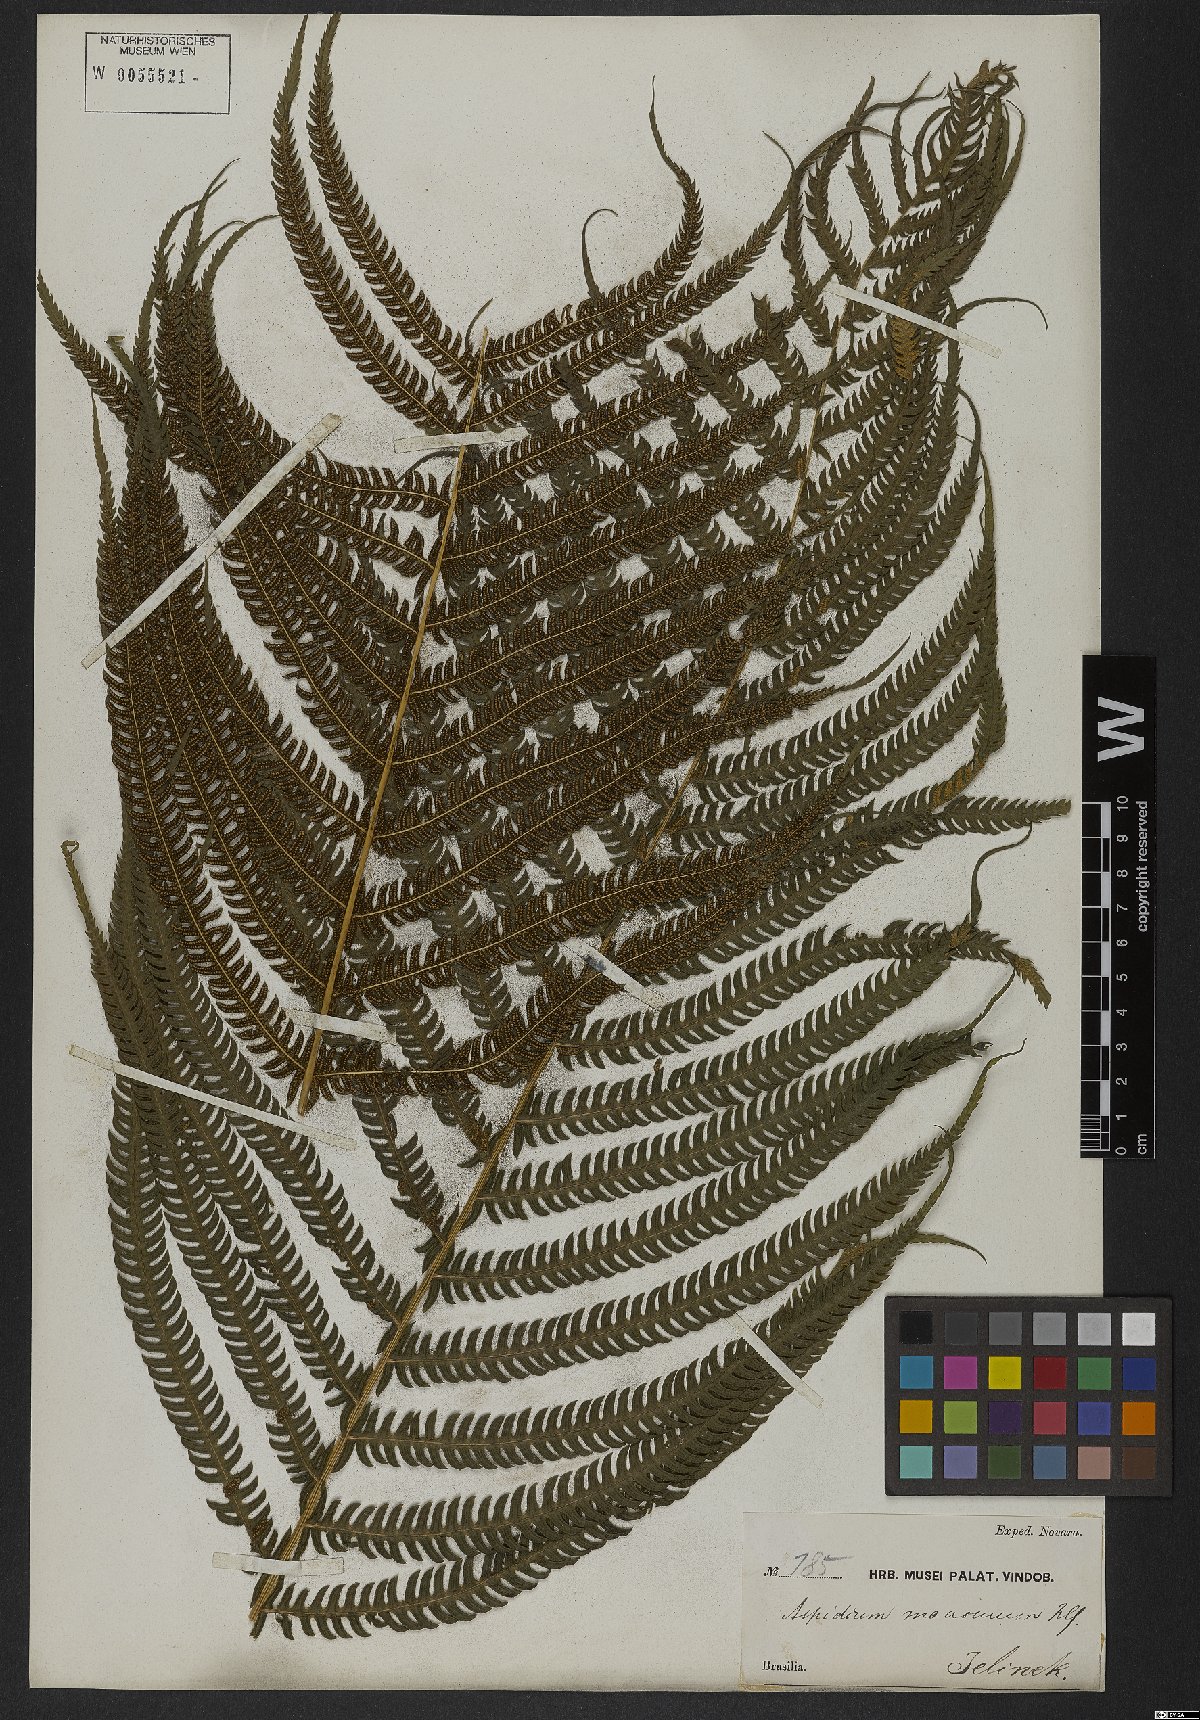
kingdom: Plantae
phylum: Tracheophyta
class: Polypodiopsida
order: Polypodiales
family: Thelypteridaceae
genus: Pelazoneuron
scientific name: Pelazoneuron patens
